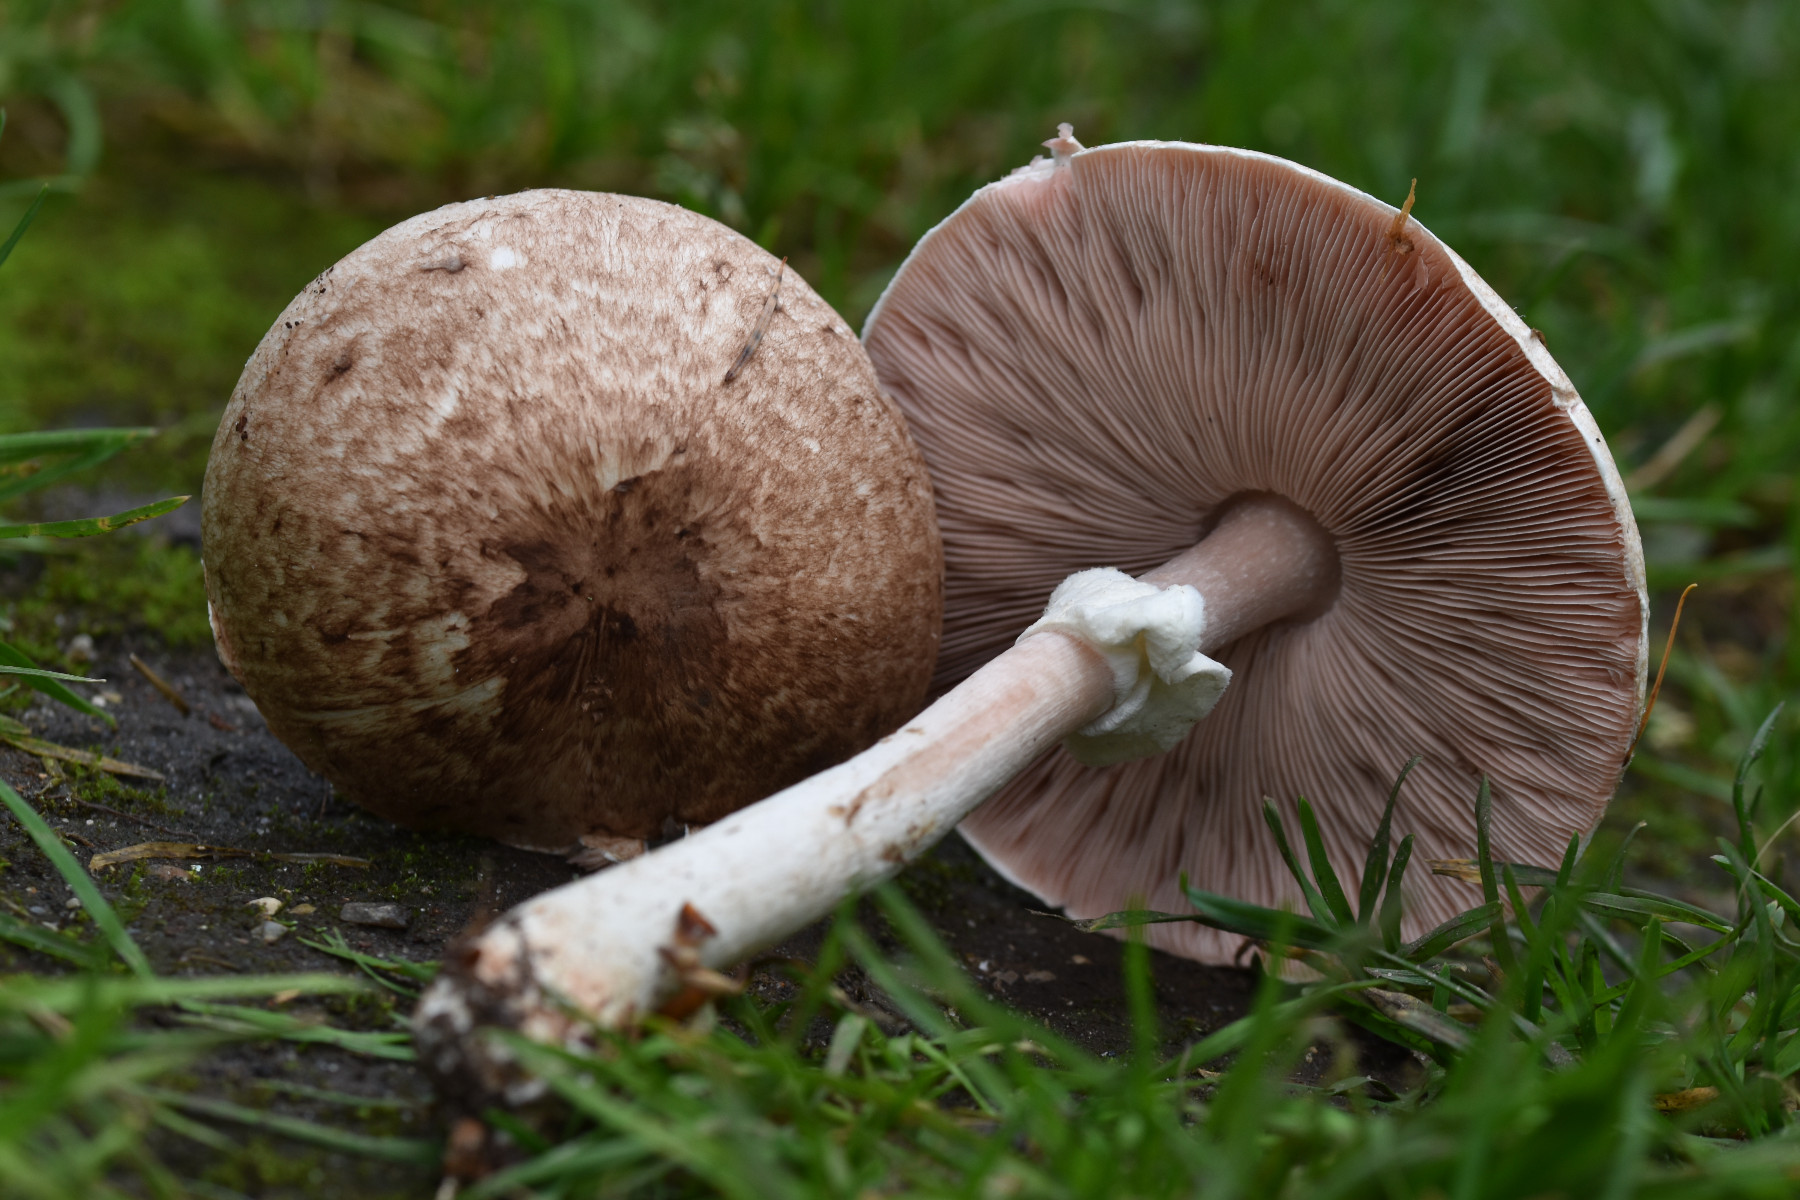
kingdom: Fungi
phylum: Basidiomycota
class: Agaricomycetes
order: Agaricales
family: Agaricaceae
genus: Agaricus
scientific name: Agaricus impudicus
